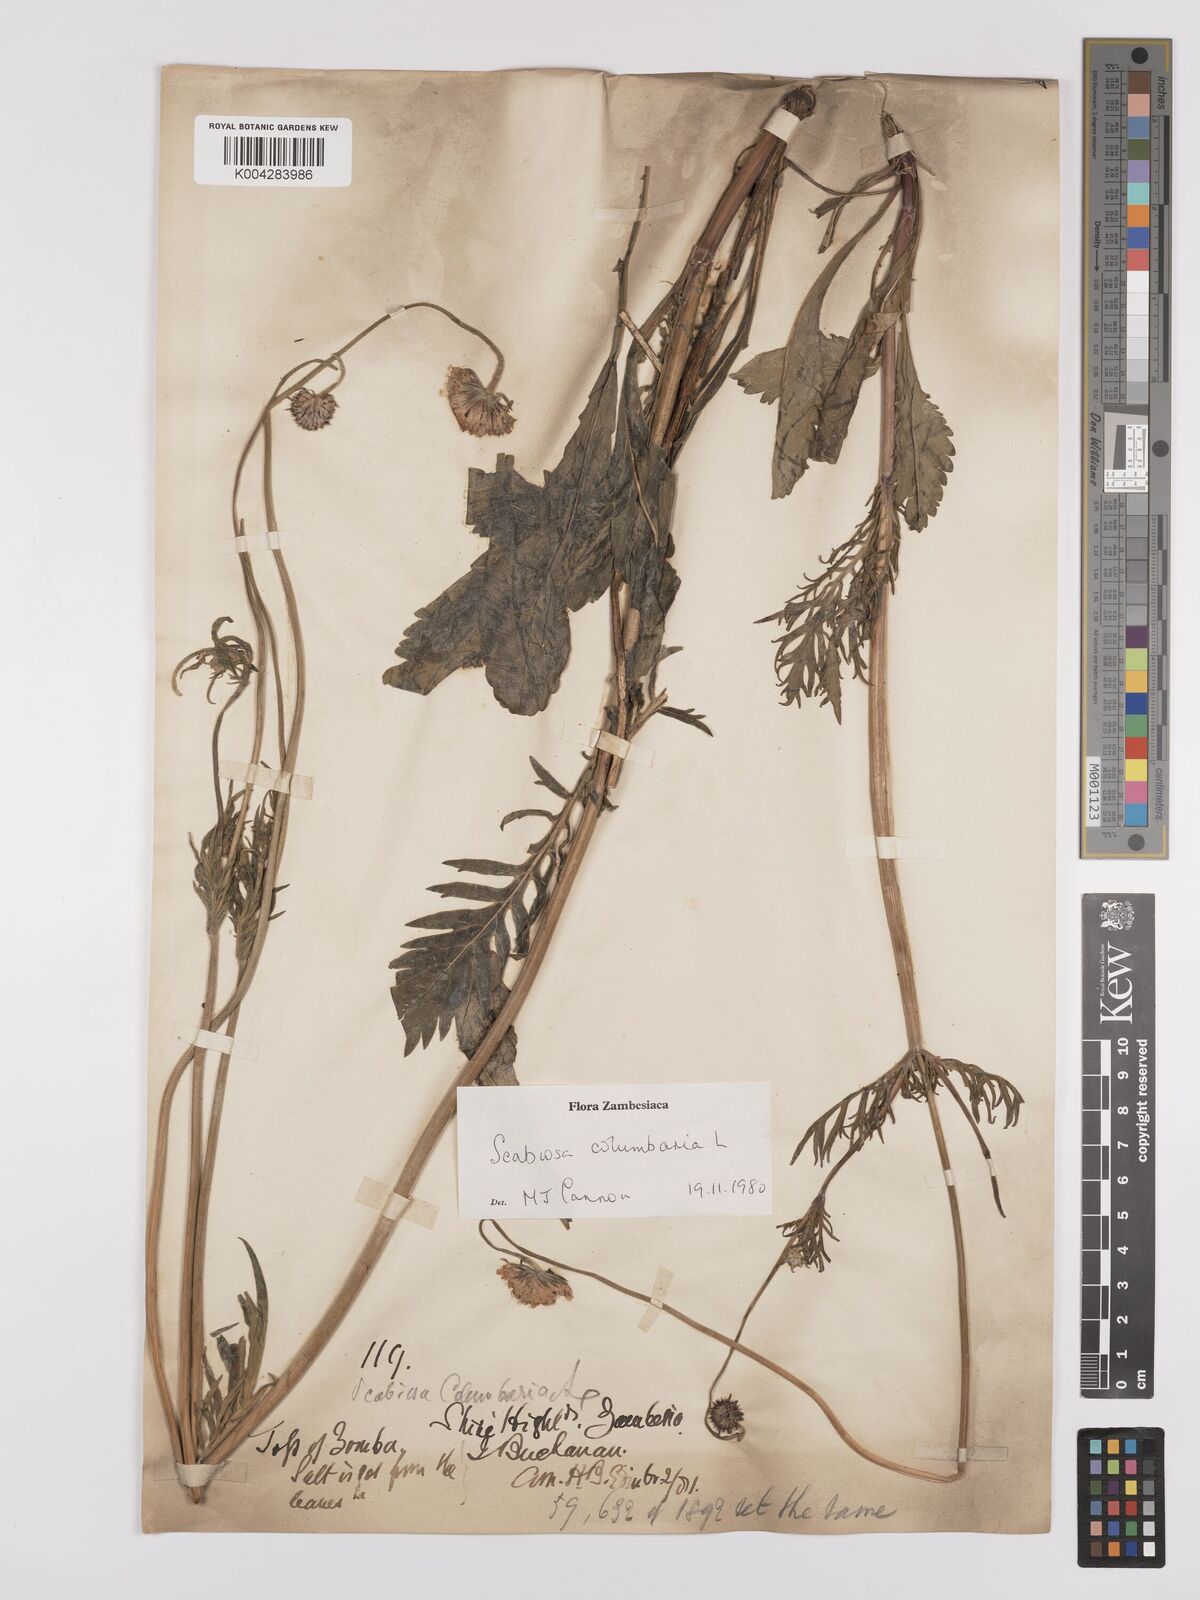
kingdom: Plantae
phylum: Tracheophyta
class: Magnoliopsida
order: Dipsacales
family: Caprifoliaceae
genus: Scabiosa
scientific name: Scabiosa columbaria
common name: Small scabious
